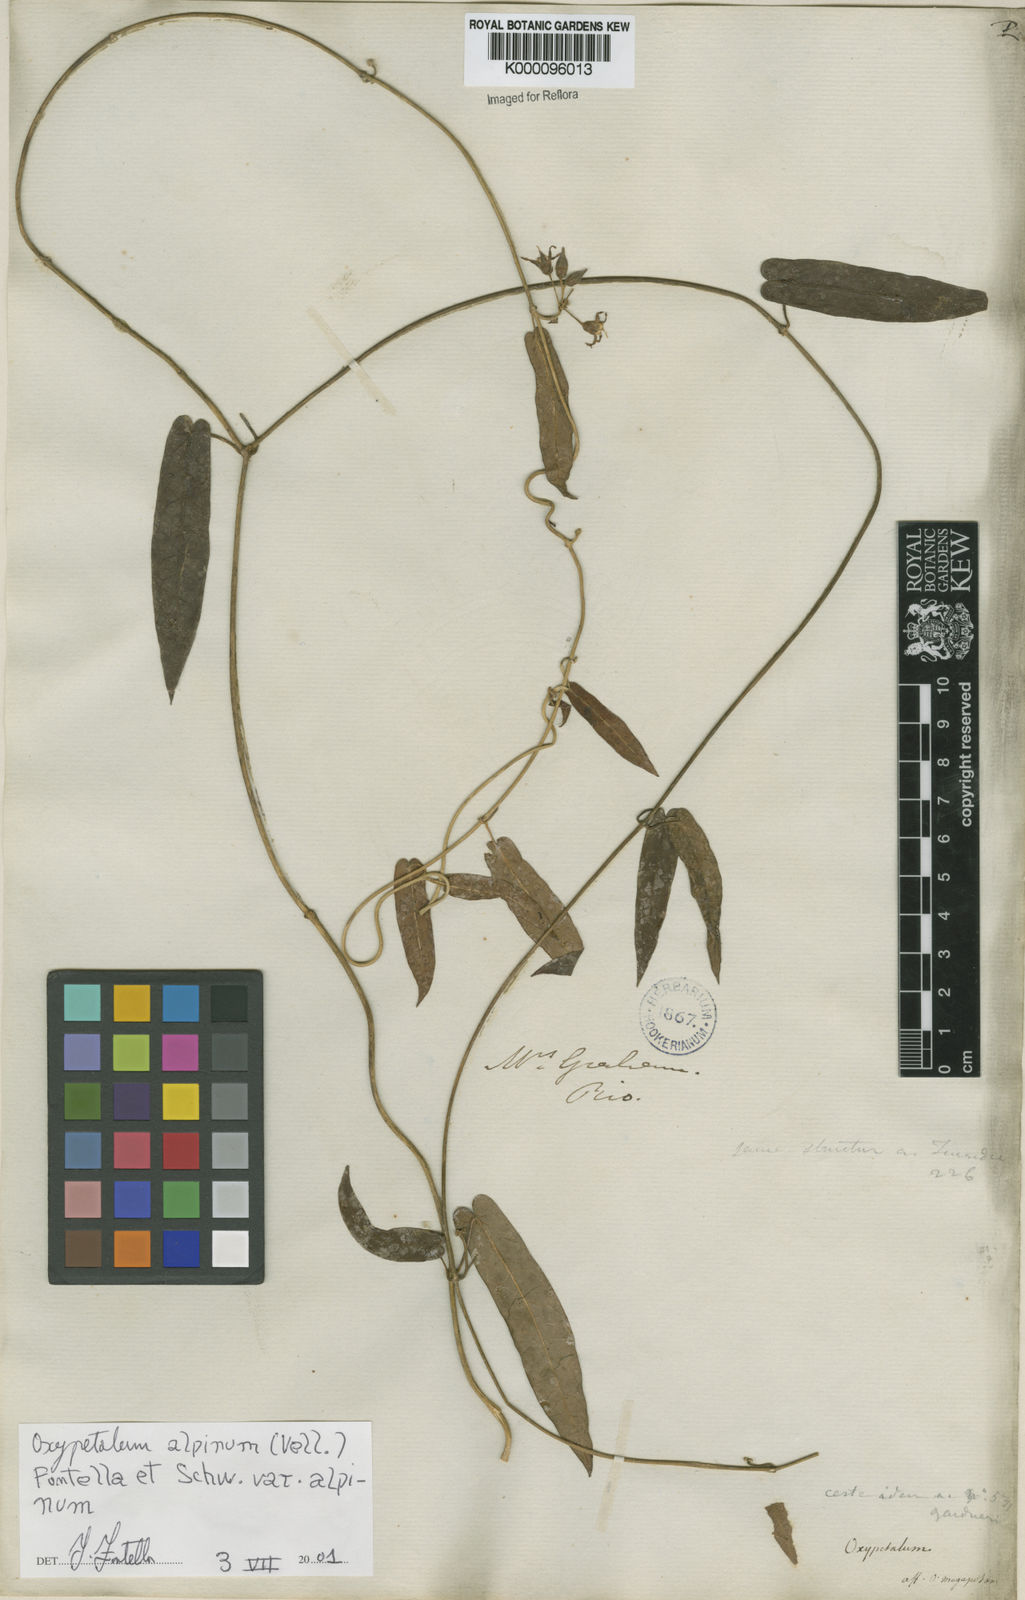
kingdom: Plantae
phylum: Tracheophyta
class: Magnoliopsida
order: Gentianales
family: Apocynaceae
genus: Oxypetalum
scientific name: Oxypetalum alpinum
